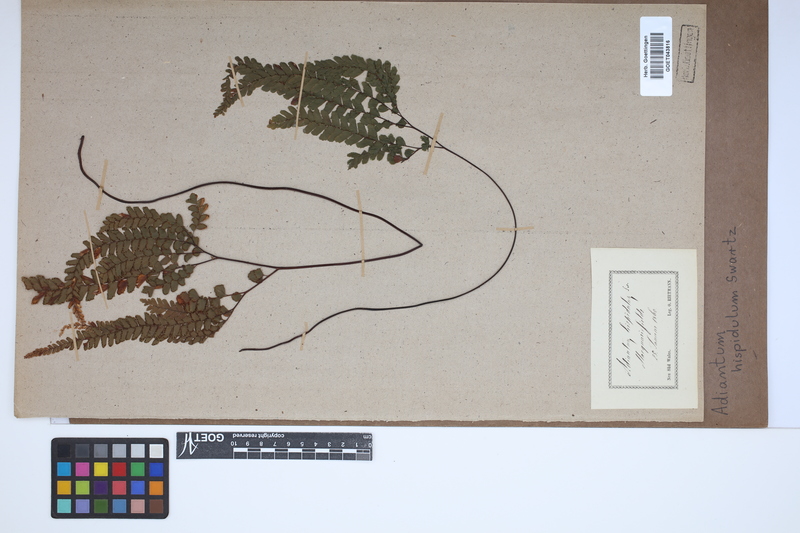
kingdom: Plantae
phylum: Tracheophyta
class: Polypodiopsida
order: Polypodiales
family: Pteridaceae
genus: Adiantum
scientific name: Adiantum hispidulum
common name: Rough maidenhair
